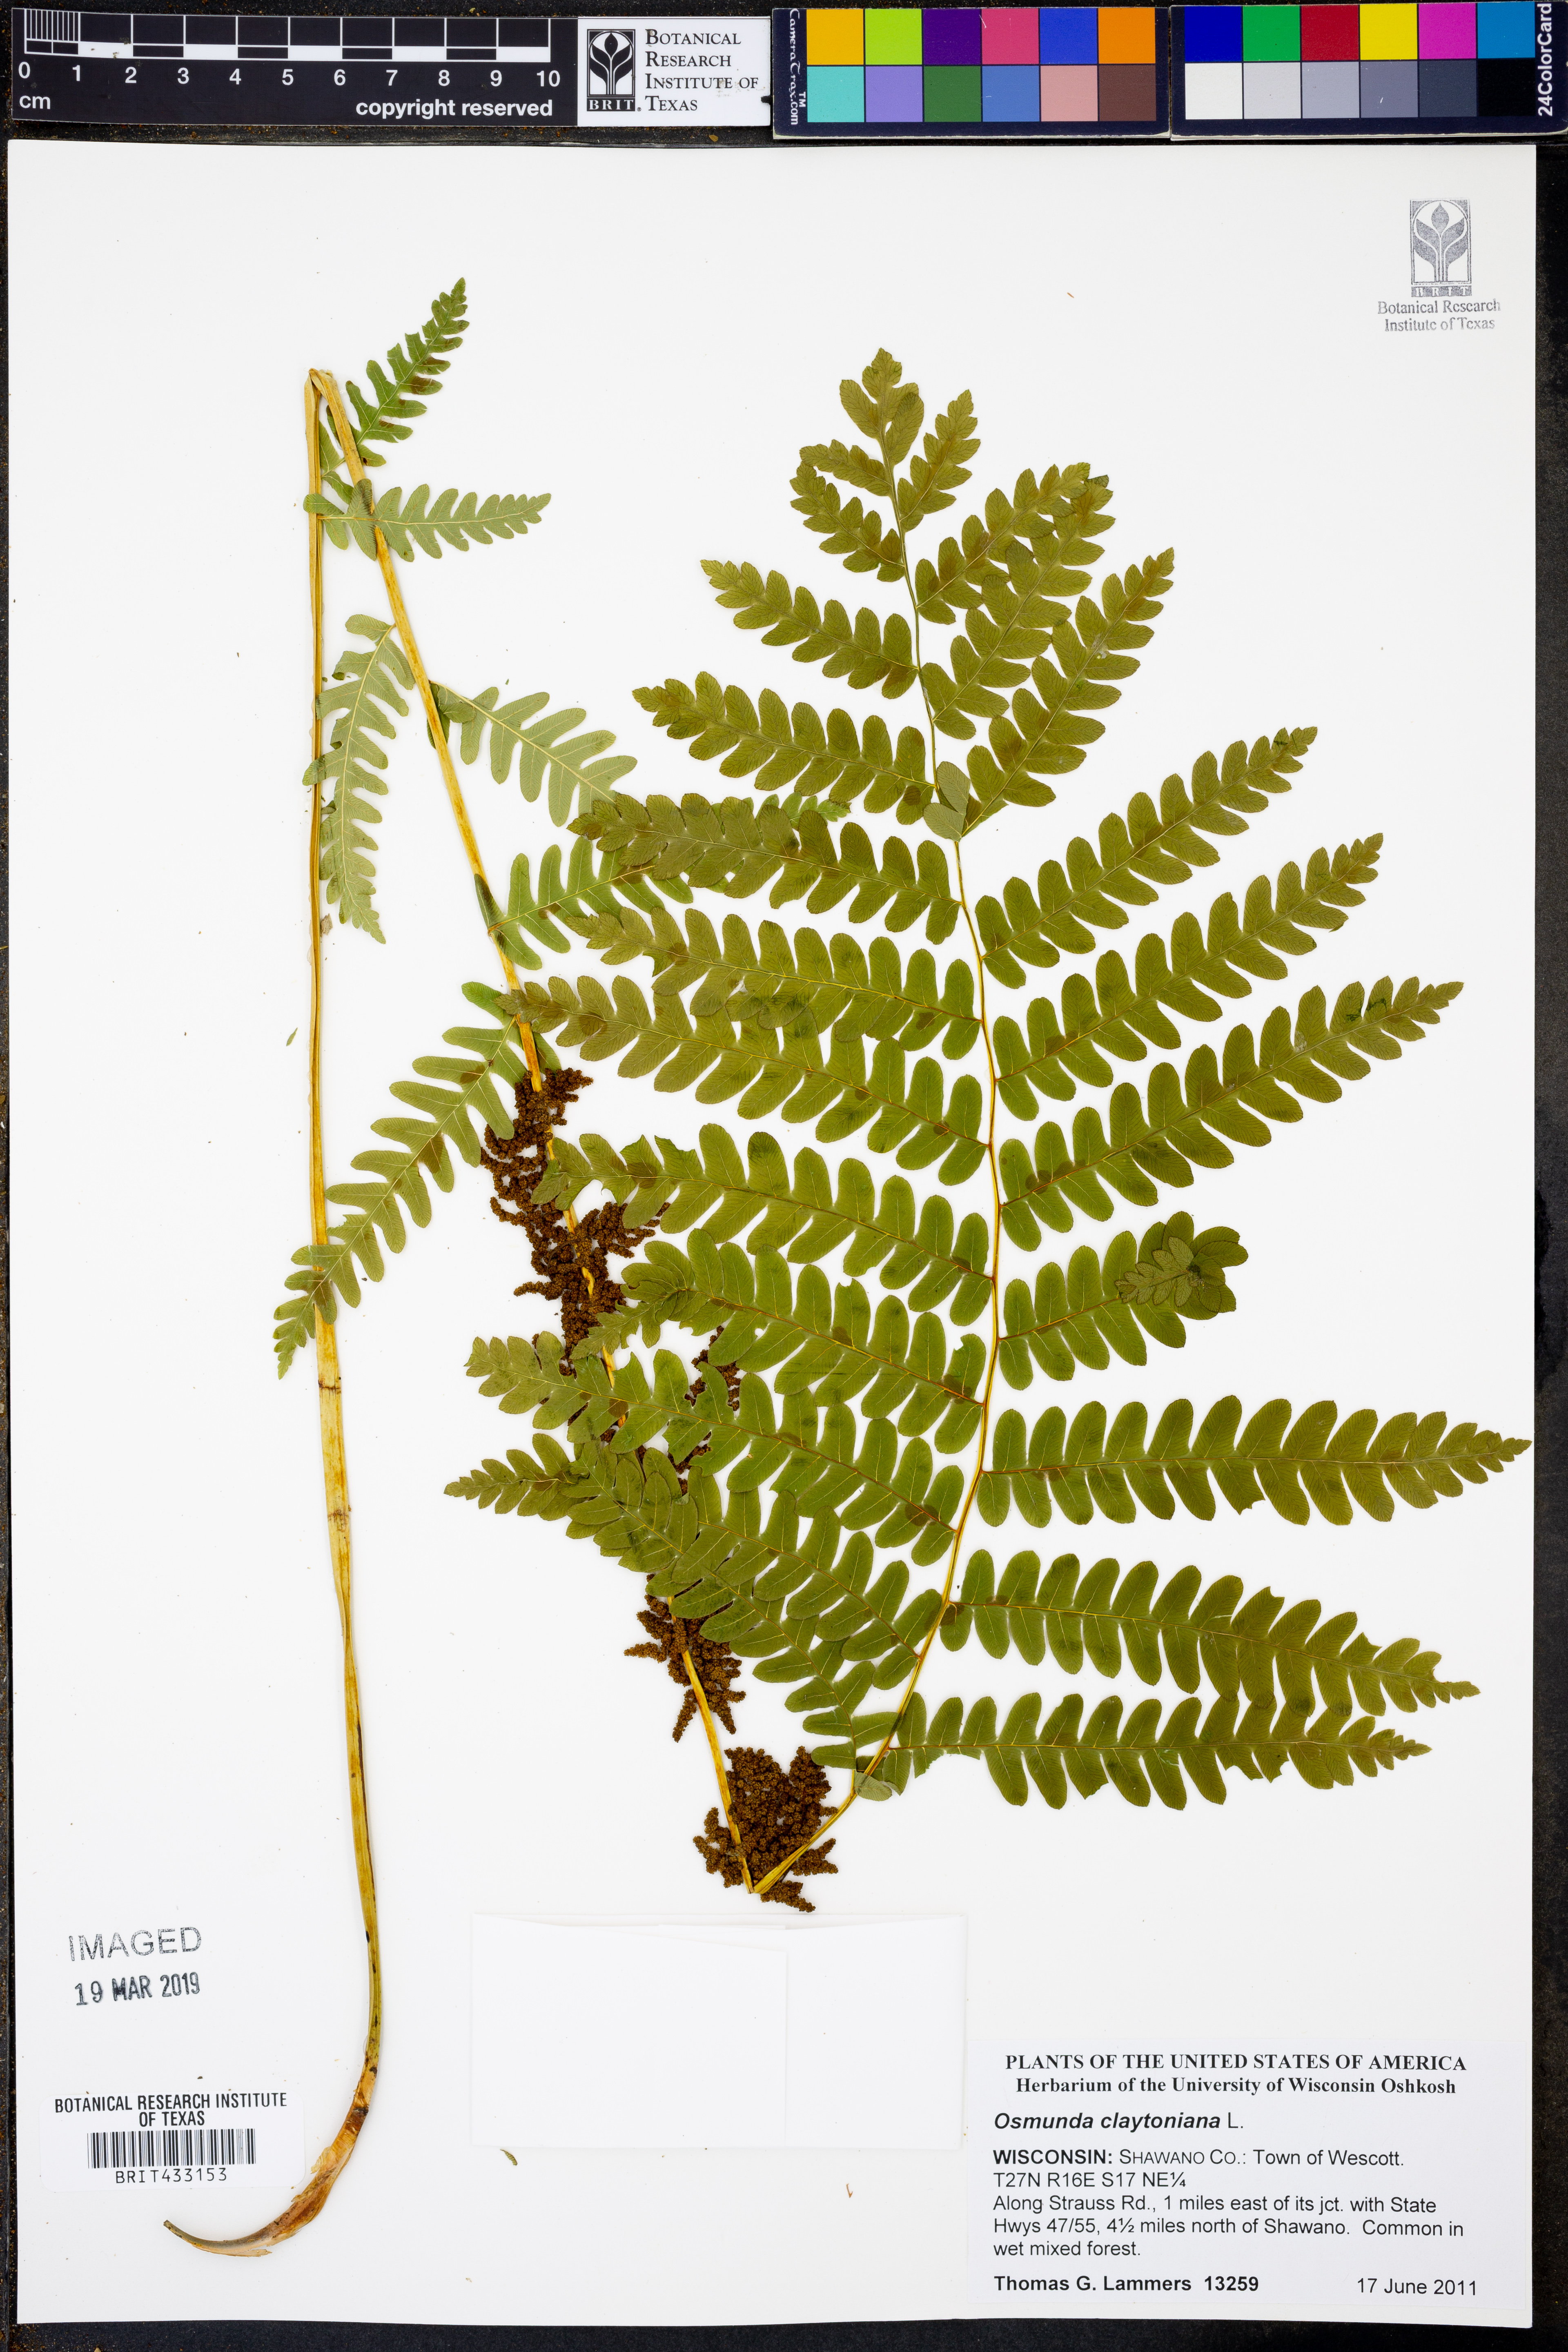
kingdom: Plantae
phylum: Tracheophyta
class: Polypodiopsida
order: Osmundales
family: Osmundaceae
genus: Claytosmunda
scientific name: Claytosmunda claytoniana
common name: Clayton's fern
